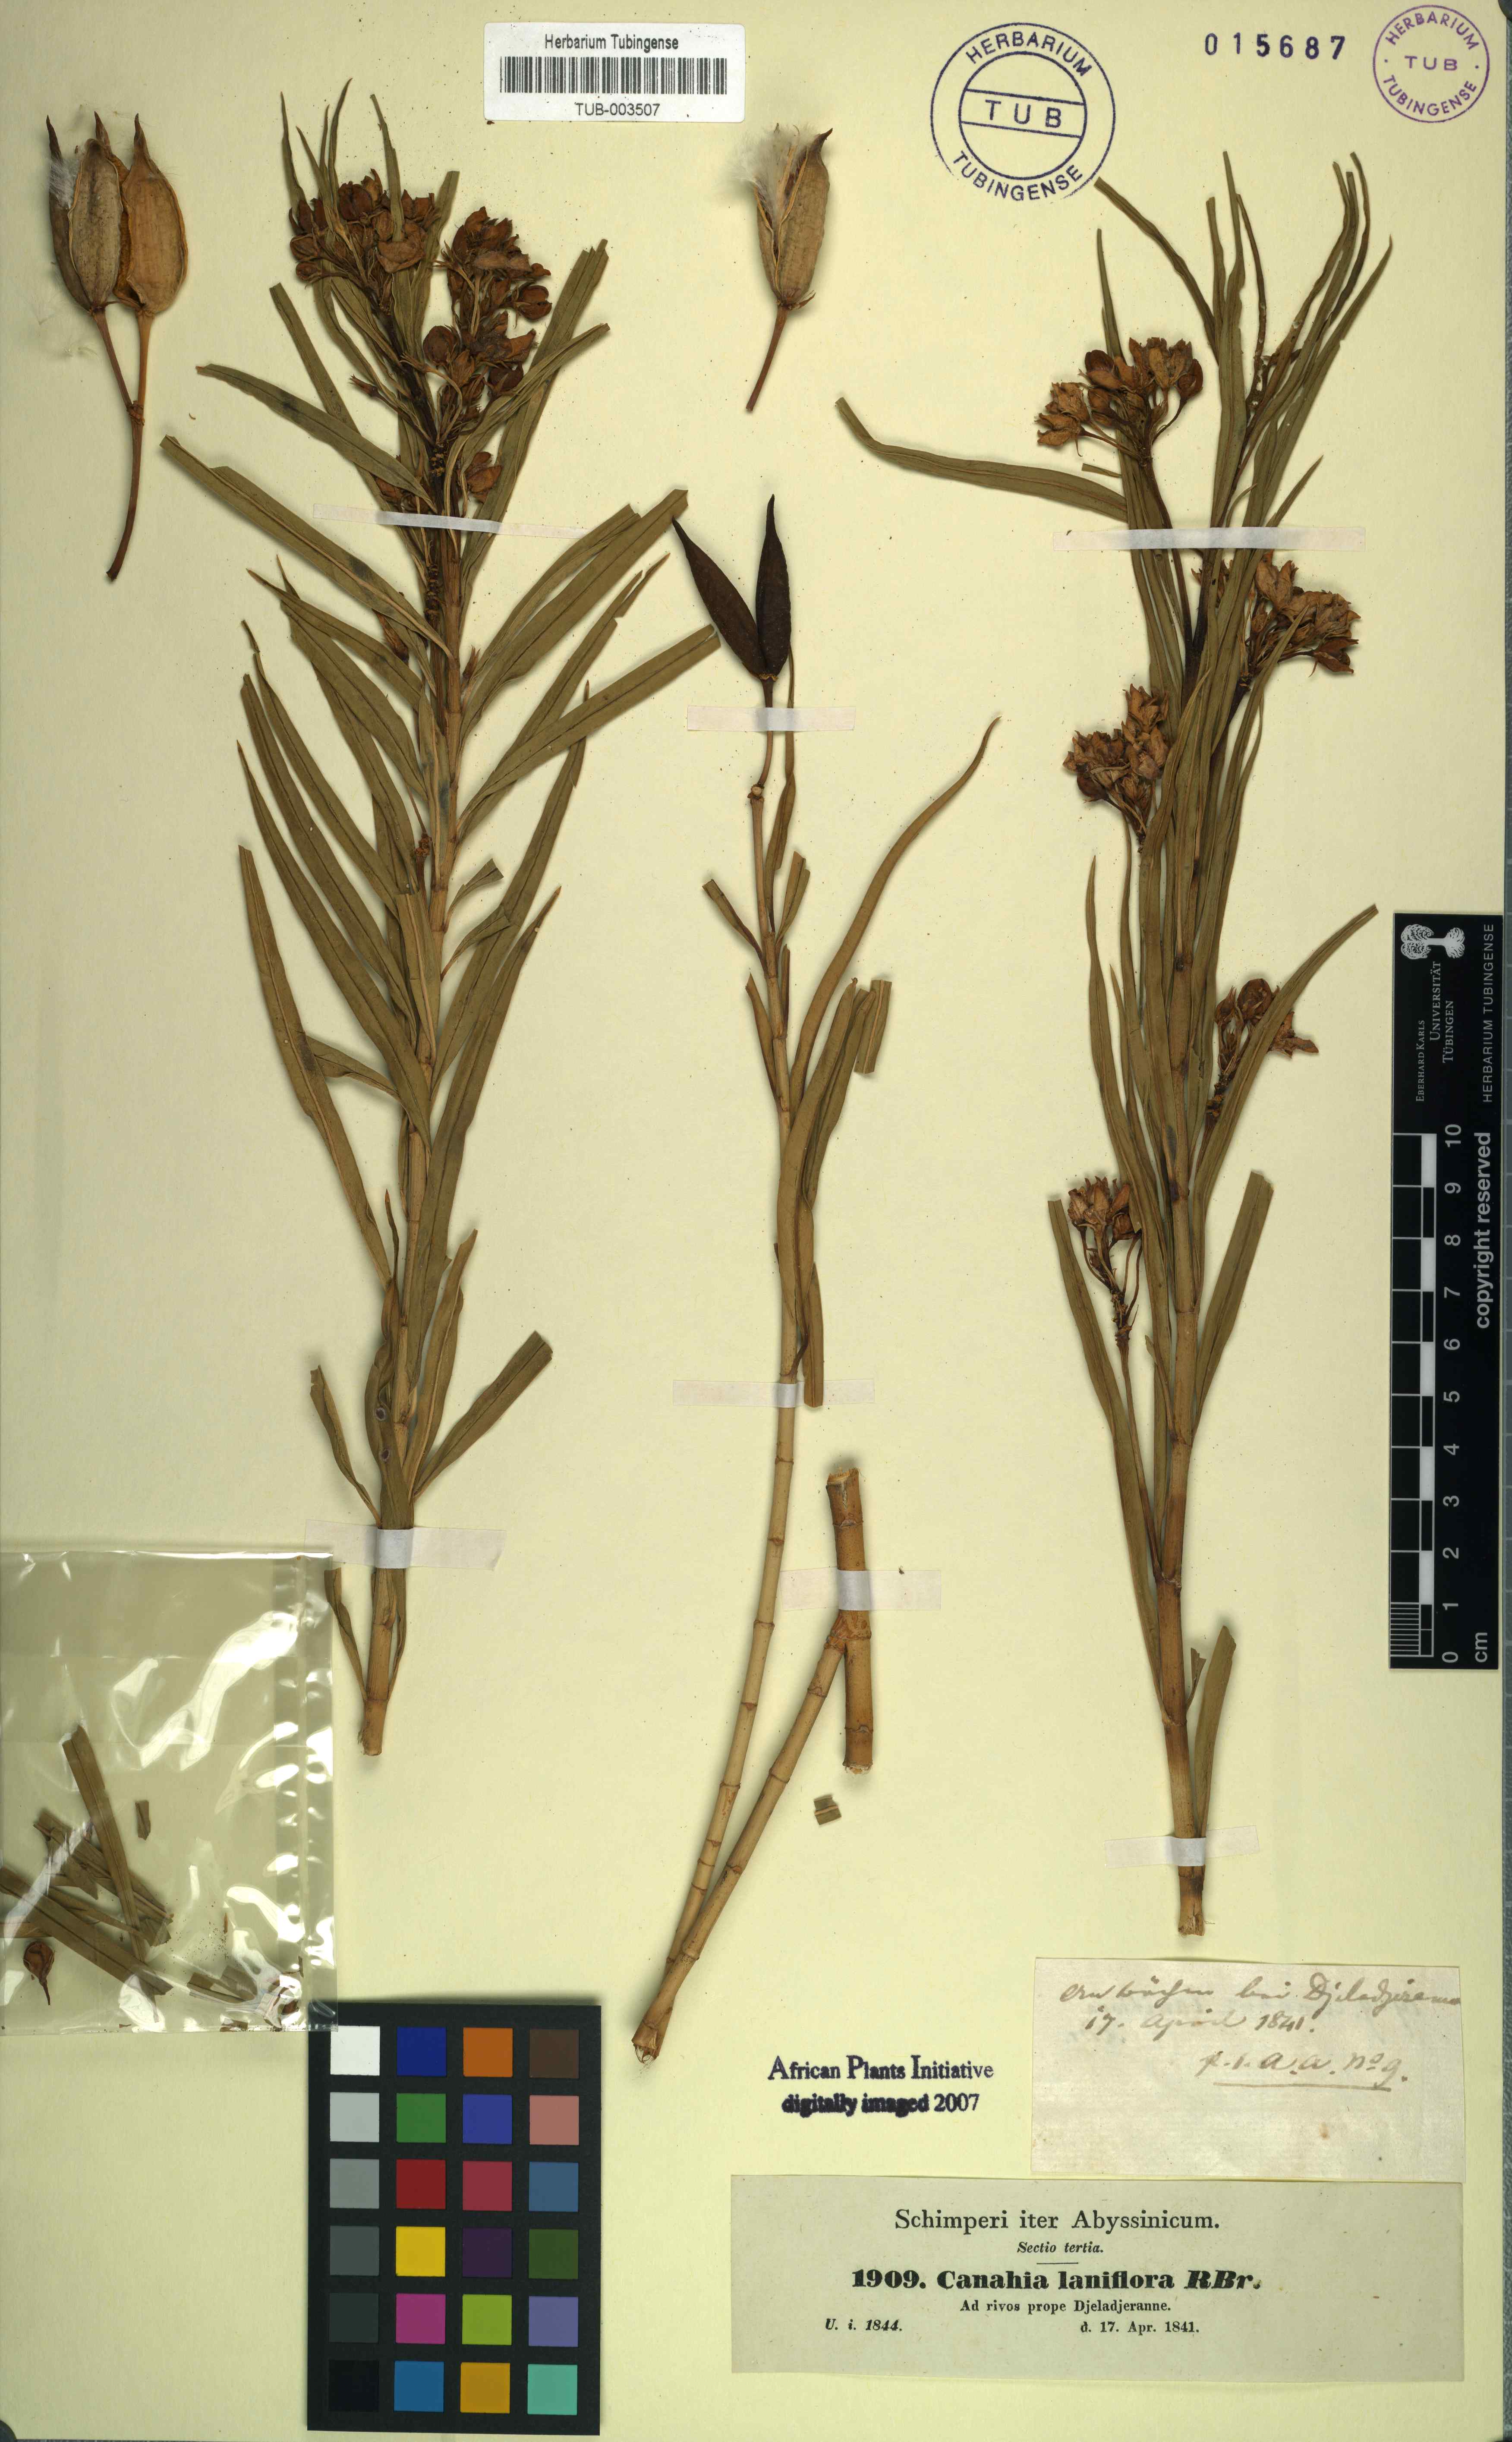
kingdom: Plantae
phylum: Tracheophyta
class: Magnoliopsida
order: Gentianales
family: Apocynaceae
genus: Kanahia
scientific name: Kanahia laniflora
